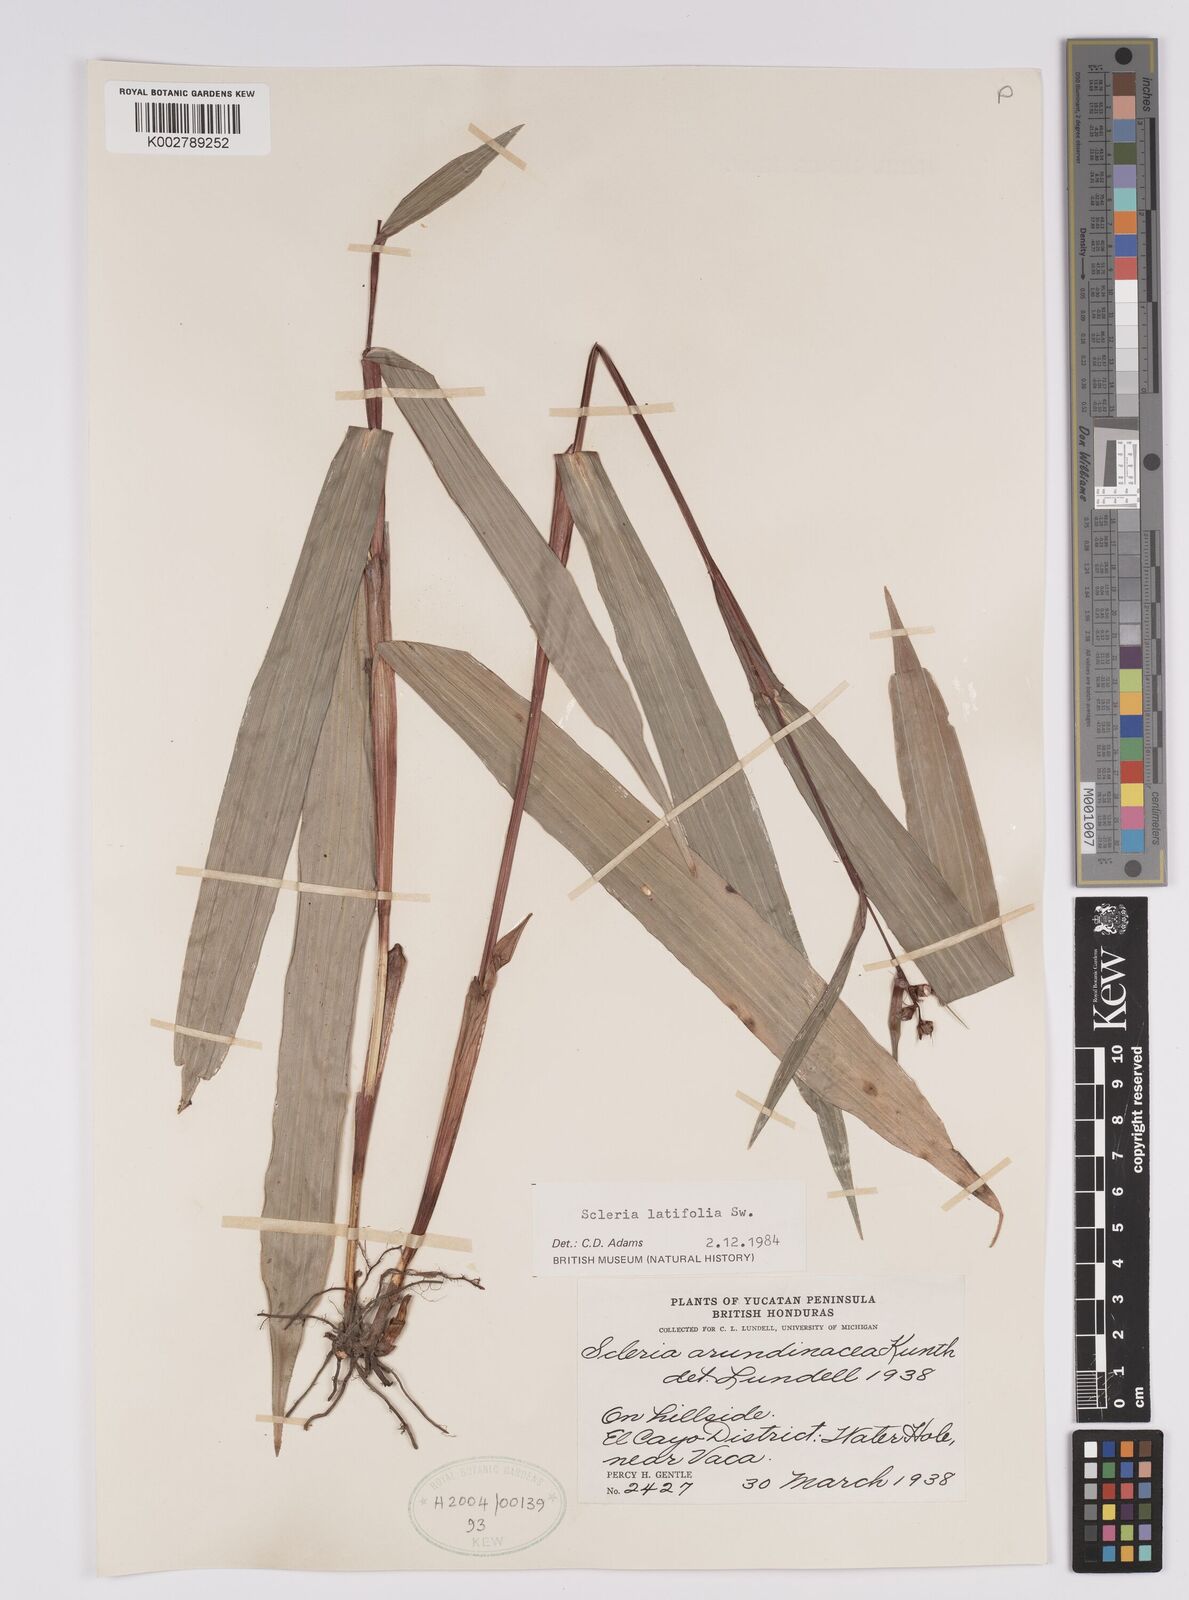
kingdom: Plantae
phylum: Tracheophyta
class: Liliopsida
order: Poales
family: Cyperaceae
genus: Scleria
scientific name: Scleria latifolia
